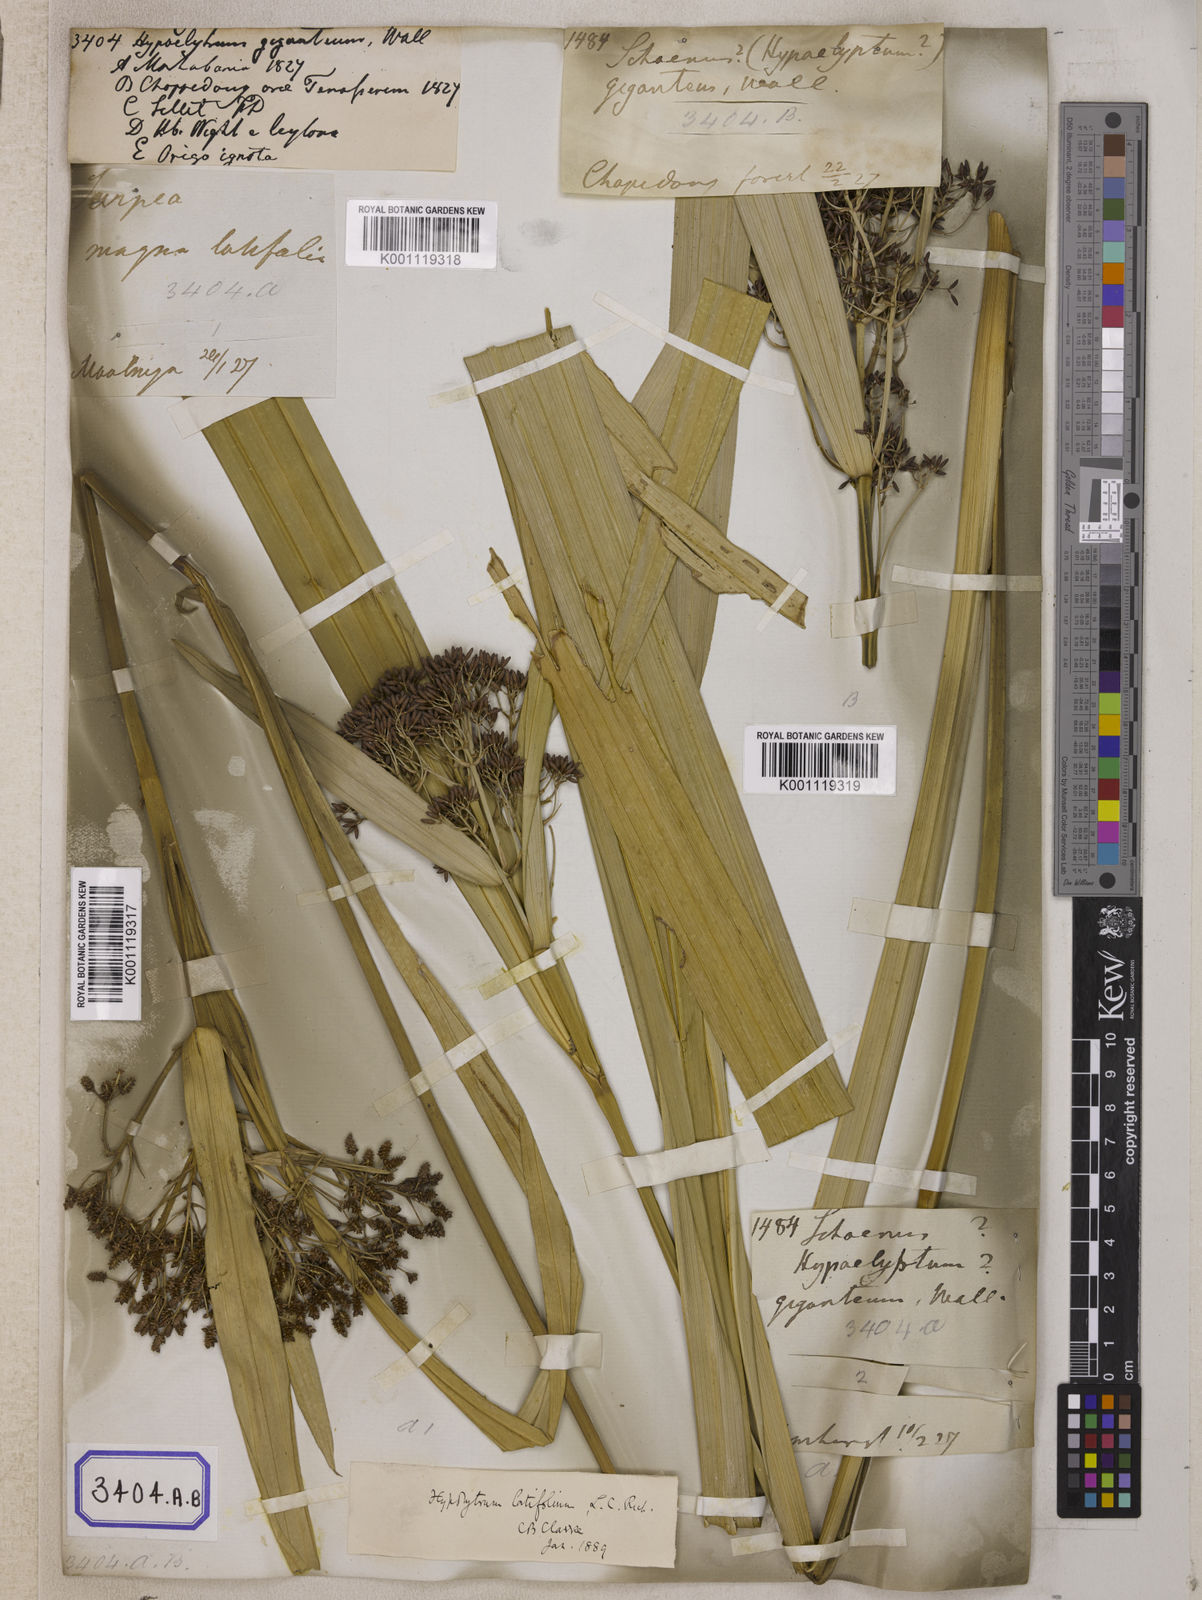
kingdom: Plantae
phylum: Tracheophyta
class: Liliopsida
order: Poales
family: Cyperaceae
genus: Hypolytrum
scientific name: Hypolytrum
